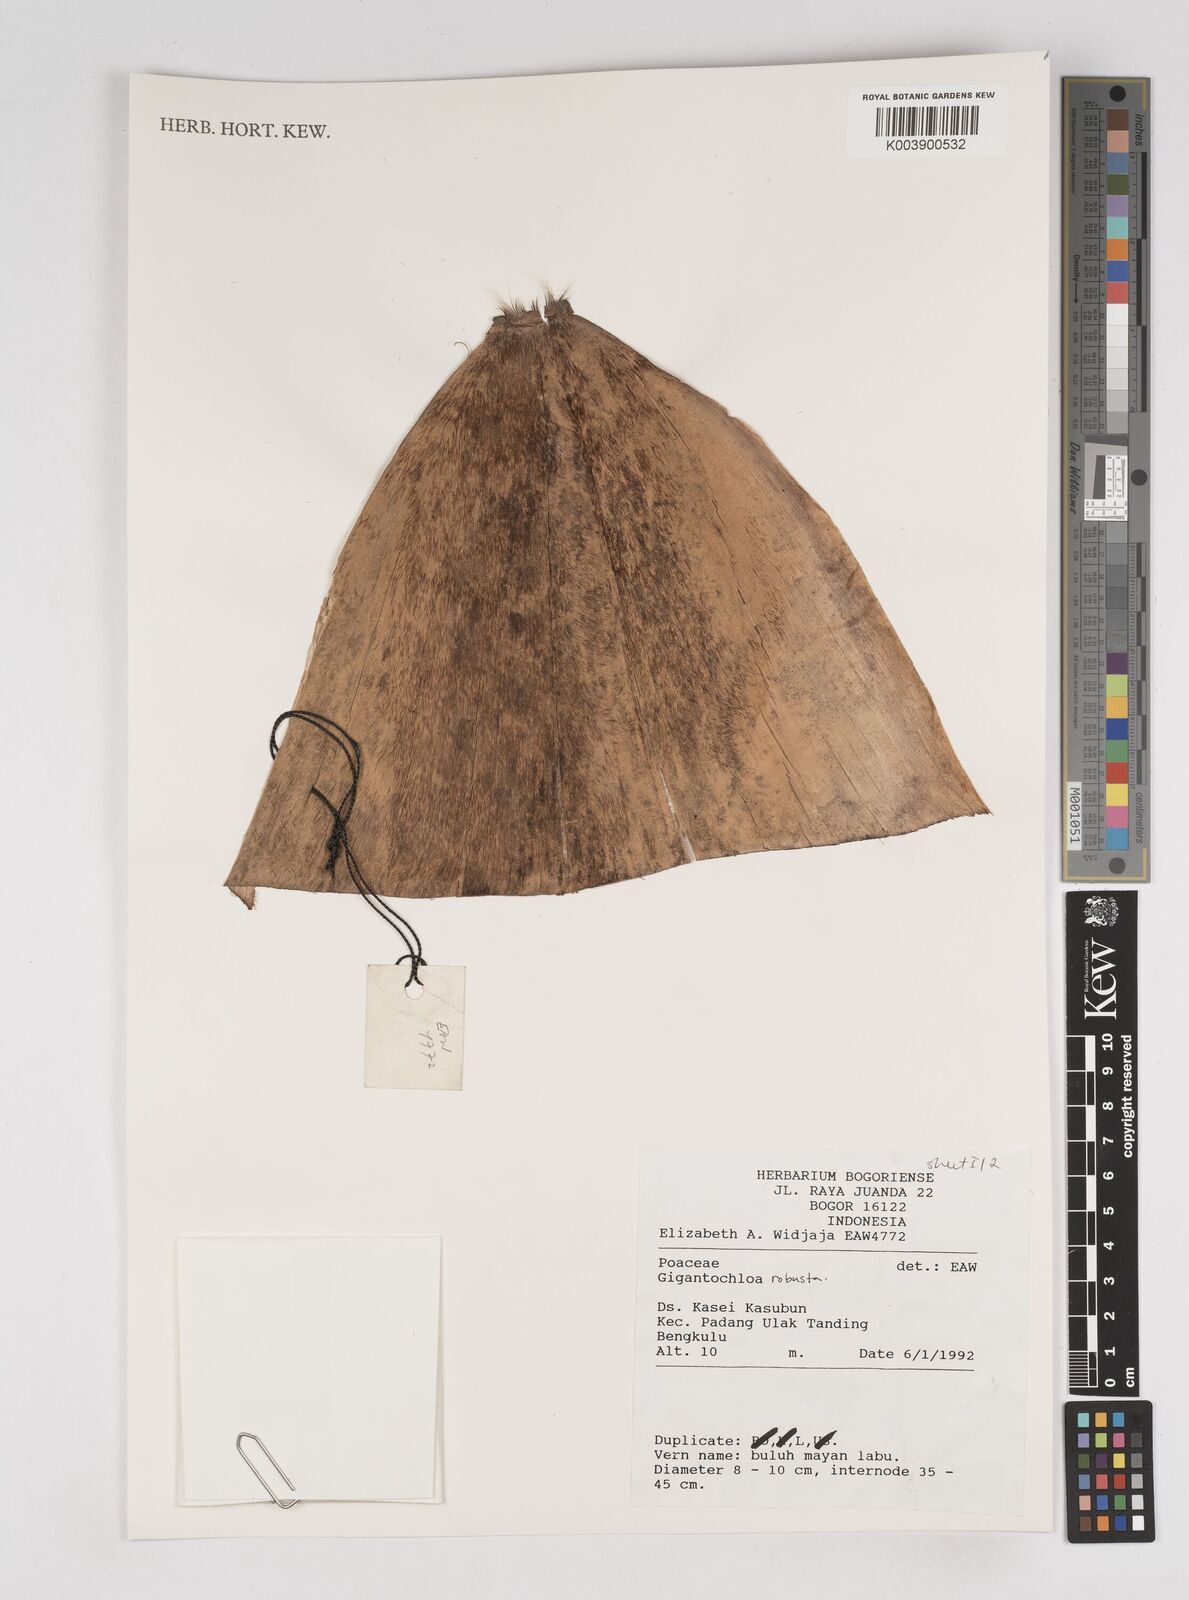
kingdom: Plantae
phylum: Tracheophyta
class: Liliopsida
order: Poales
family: Poaceae
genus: Gigantochloa
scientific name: Gigantochloa robusta
